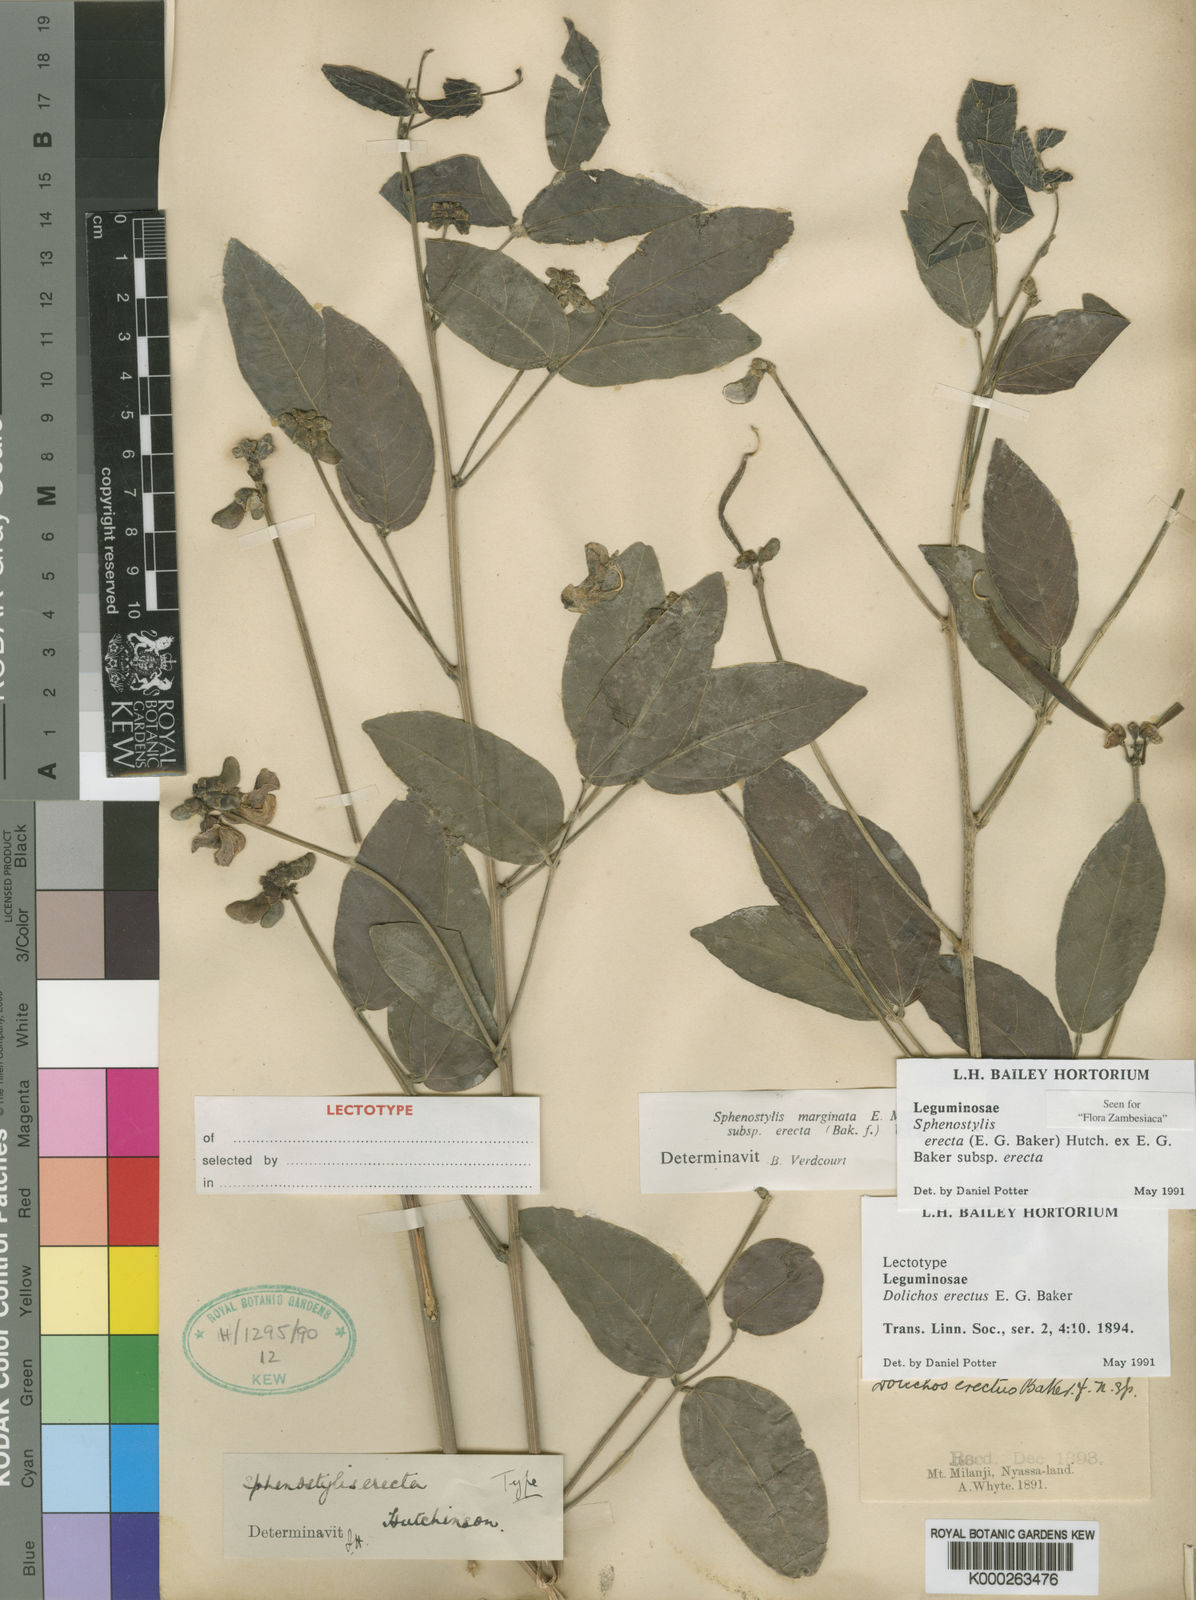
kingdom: Plantae
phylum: Tracheophyta
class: Magnoliopsida
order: Fabales
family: Fabaceae
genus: Sphenostylis
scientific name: Sphenostylis erecta
